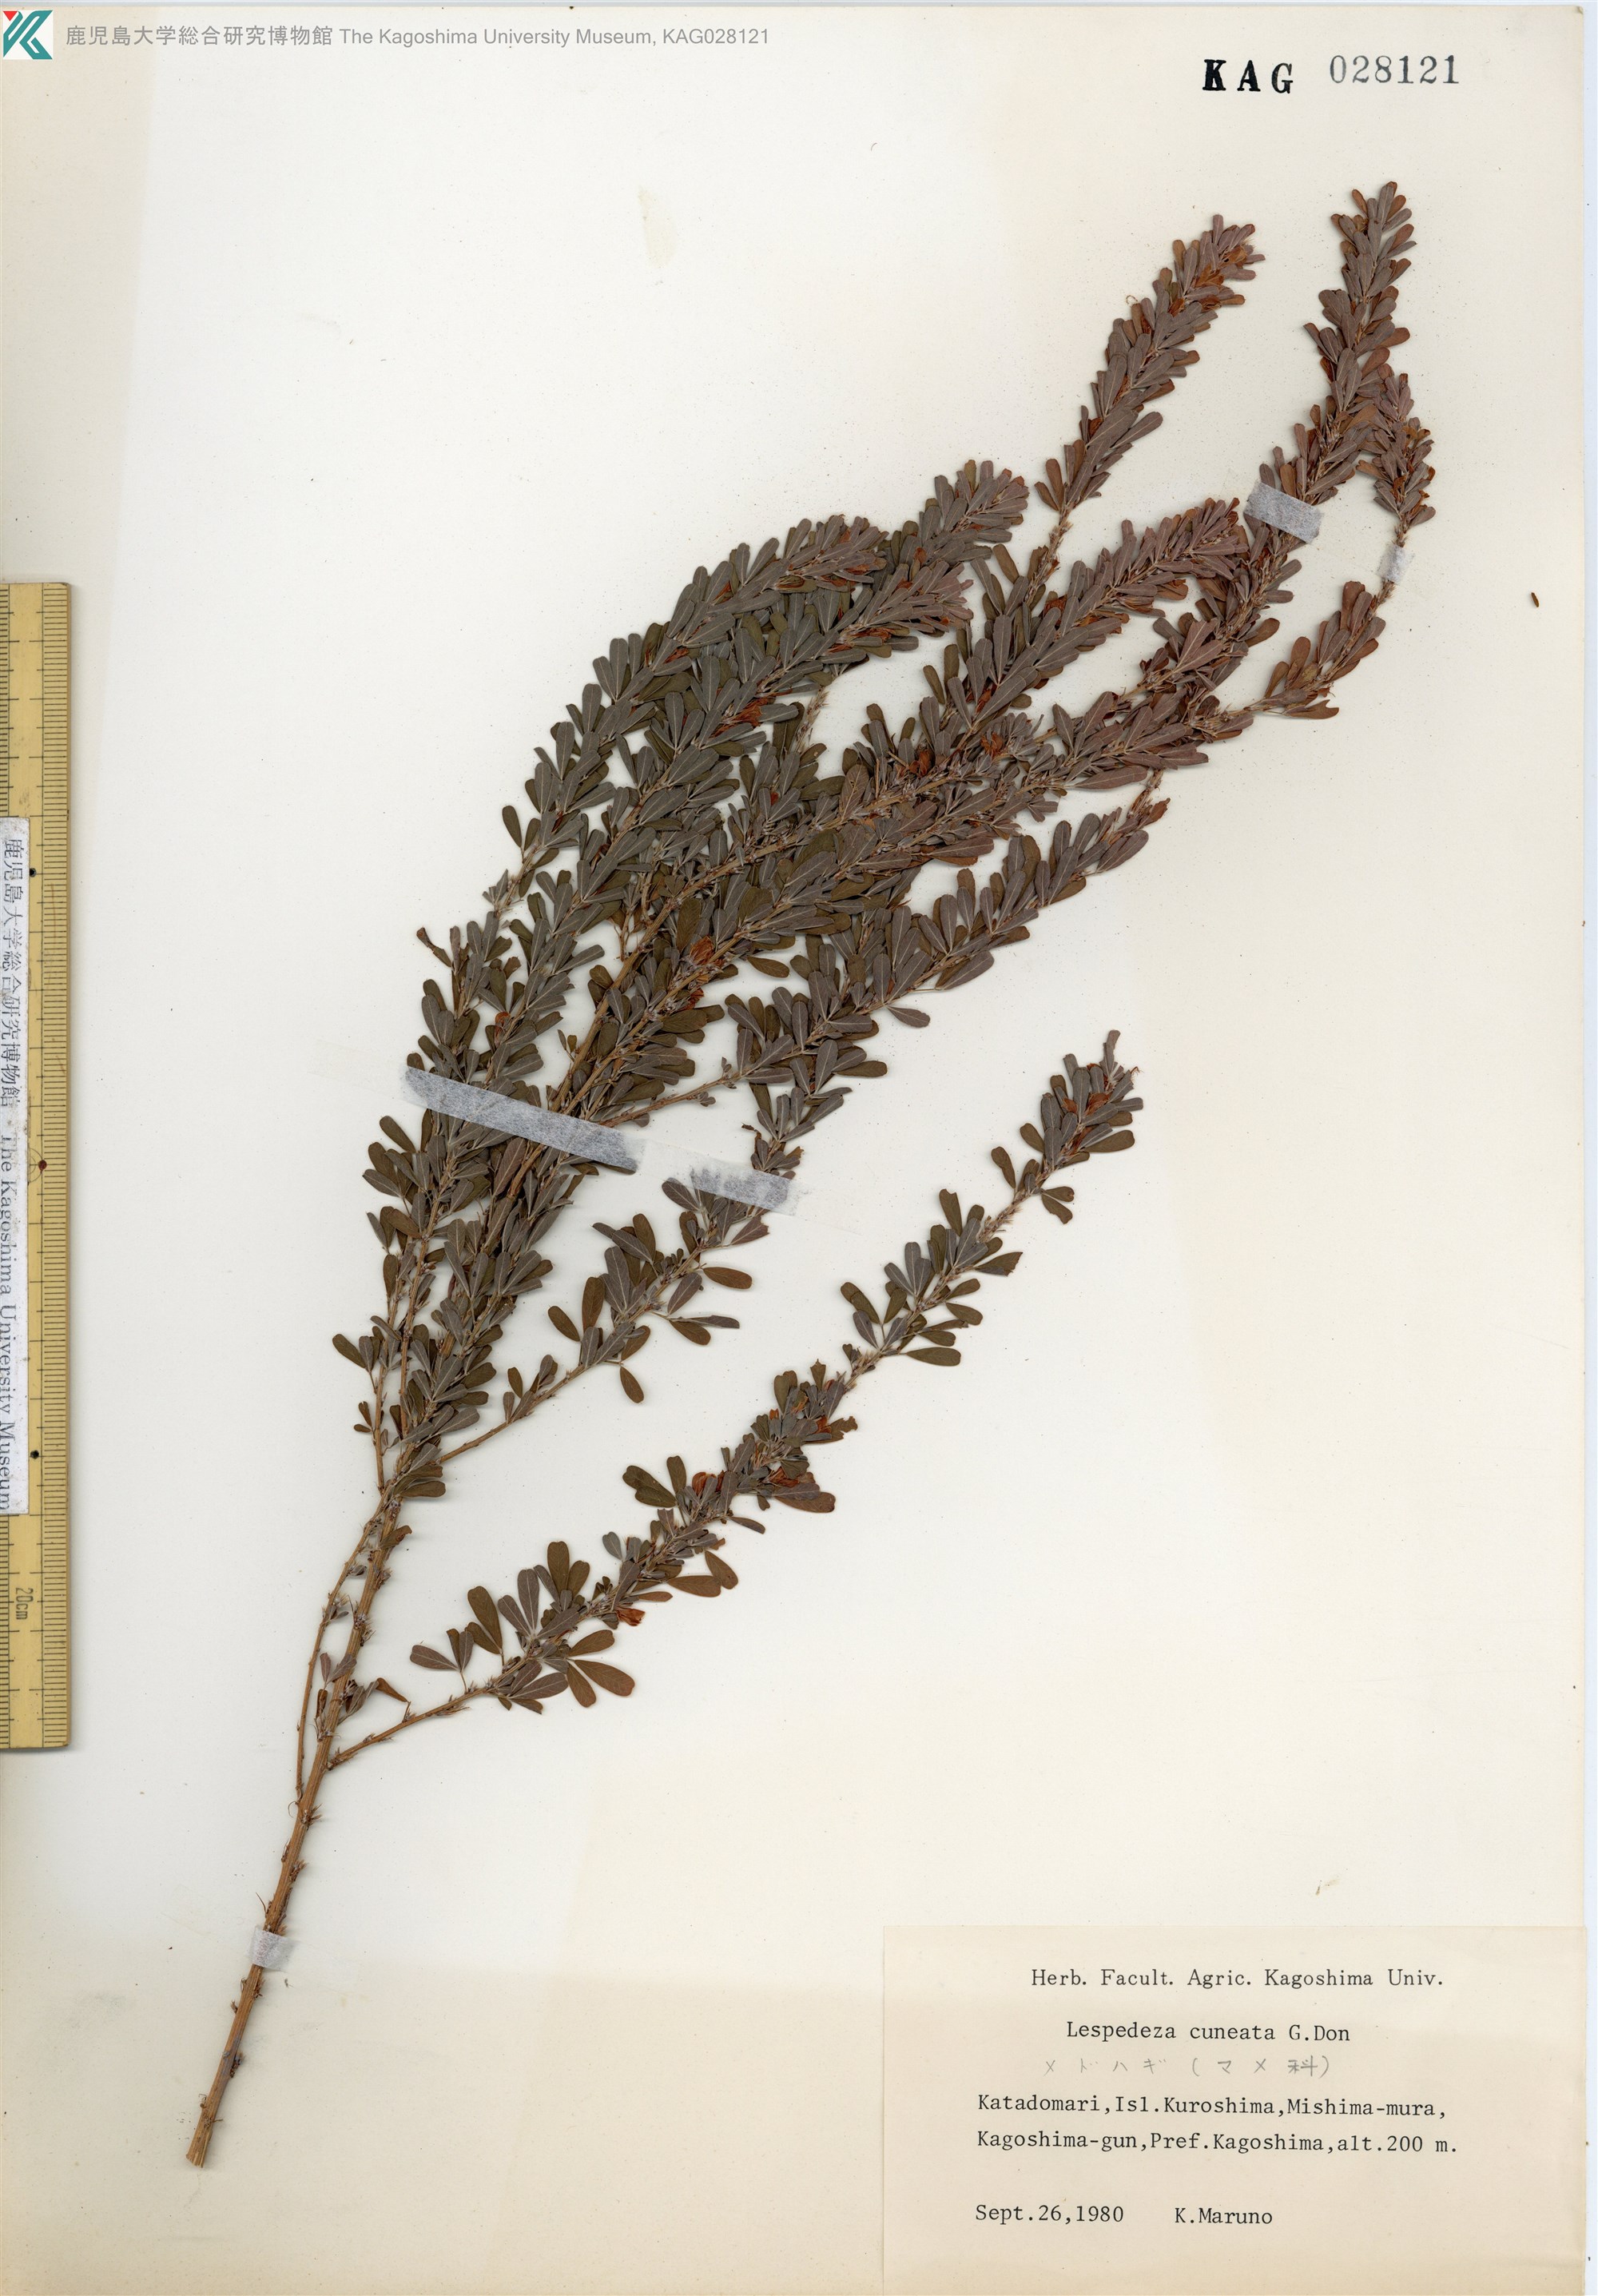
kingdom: Plantae
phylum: Tracheophyta
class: Magnoliopsida
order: Fabales
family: Fabaceae
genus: Lespedeza
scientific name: Lespedeza cuneata
